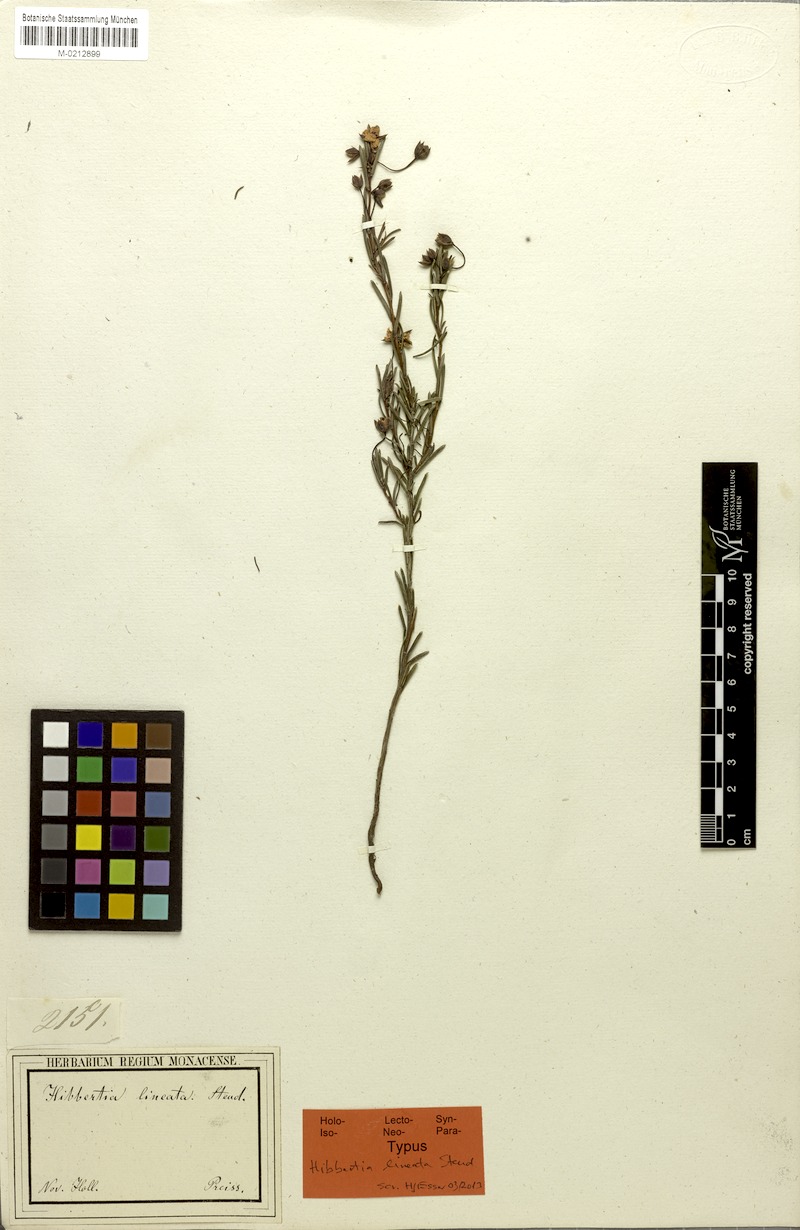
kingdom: Plantae
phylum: Tracheophyta
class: Magnoliopsida
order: Dilleniales
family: Dilleniaceae
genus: Hibbertia
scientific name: Hibbertia lineata
